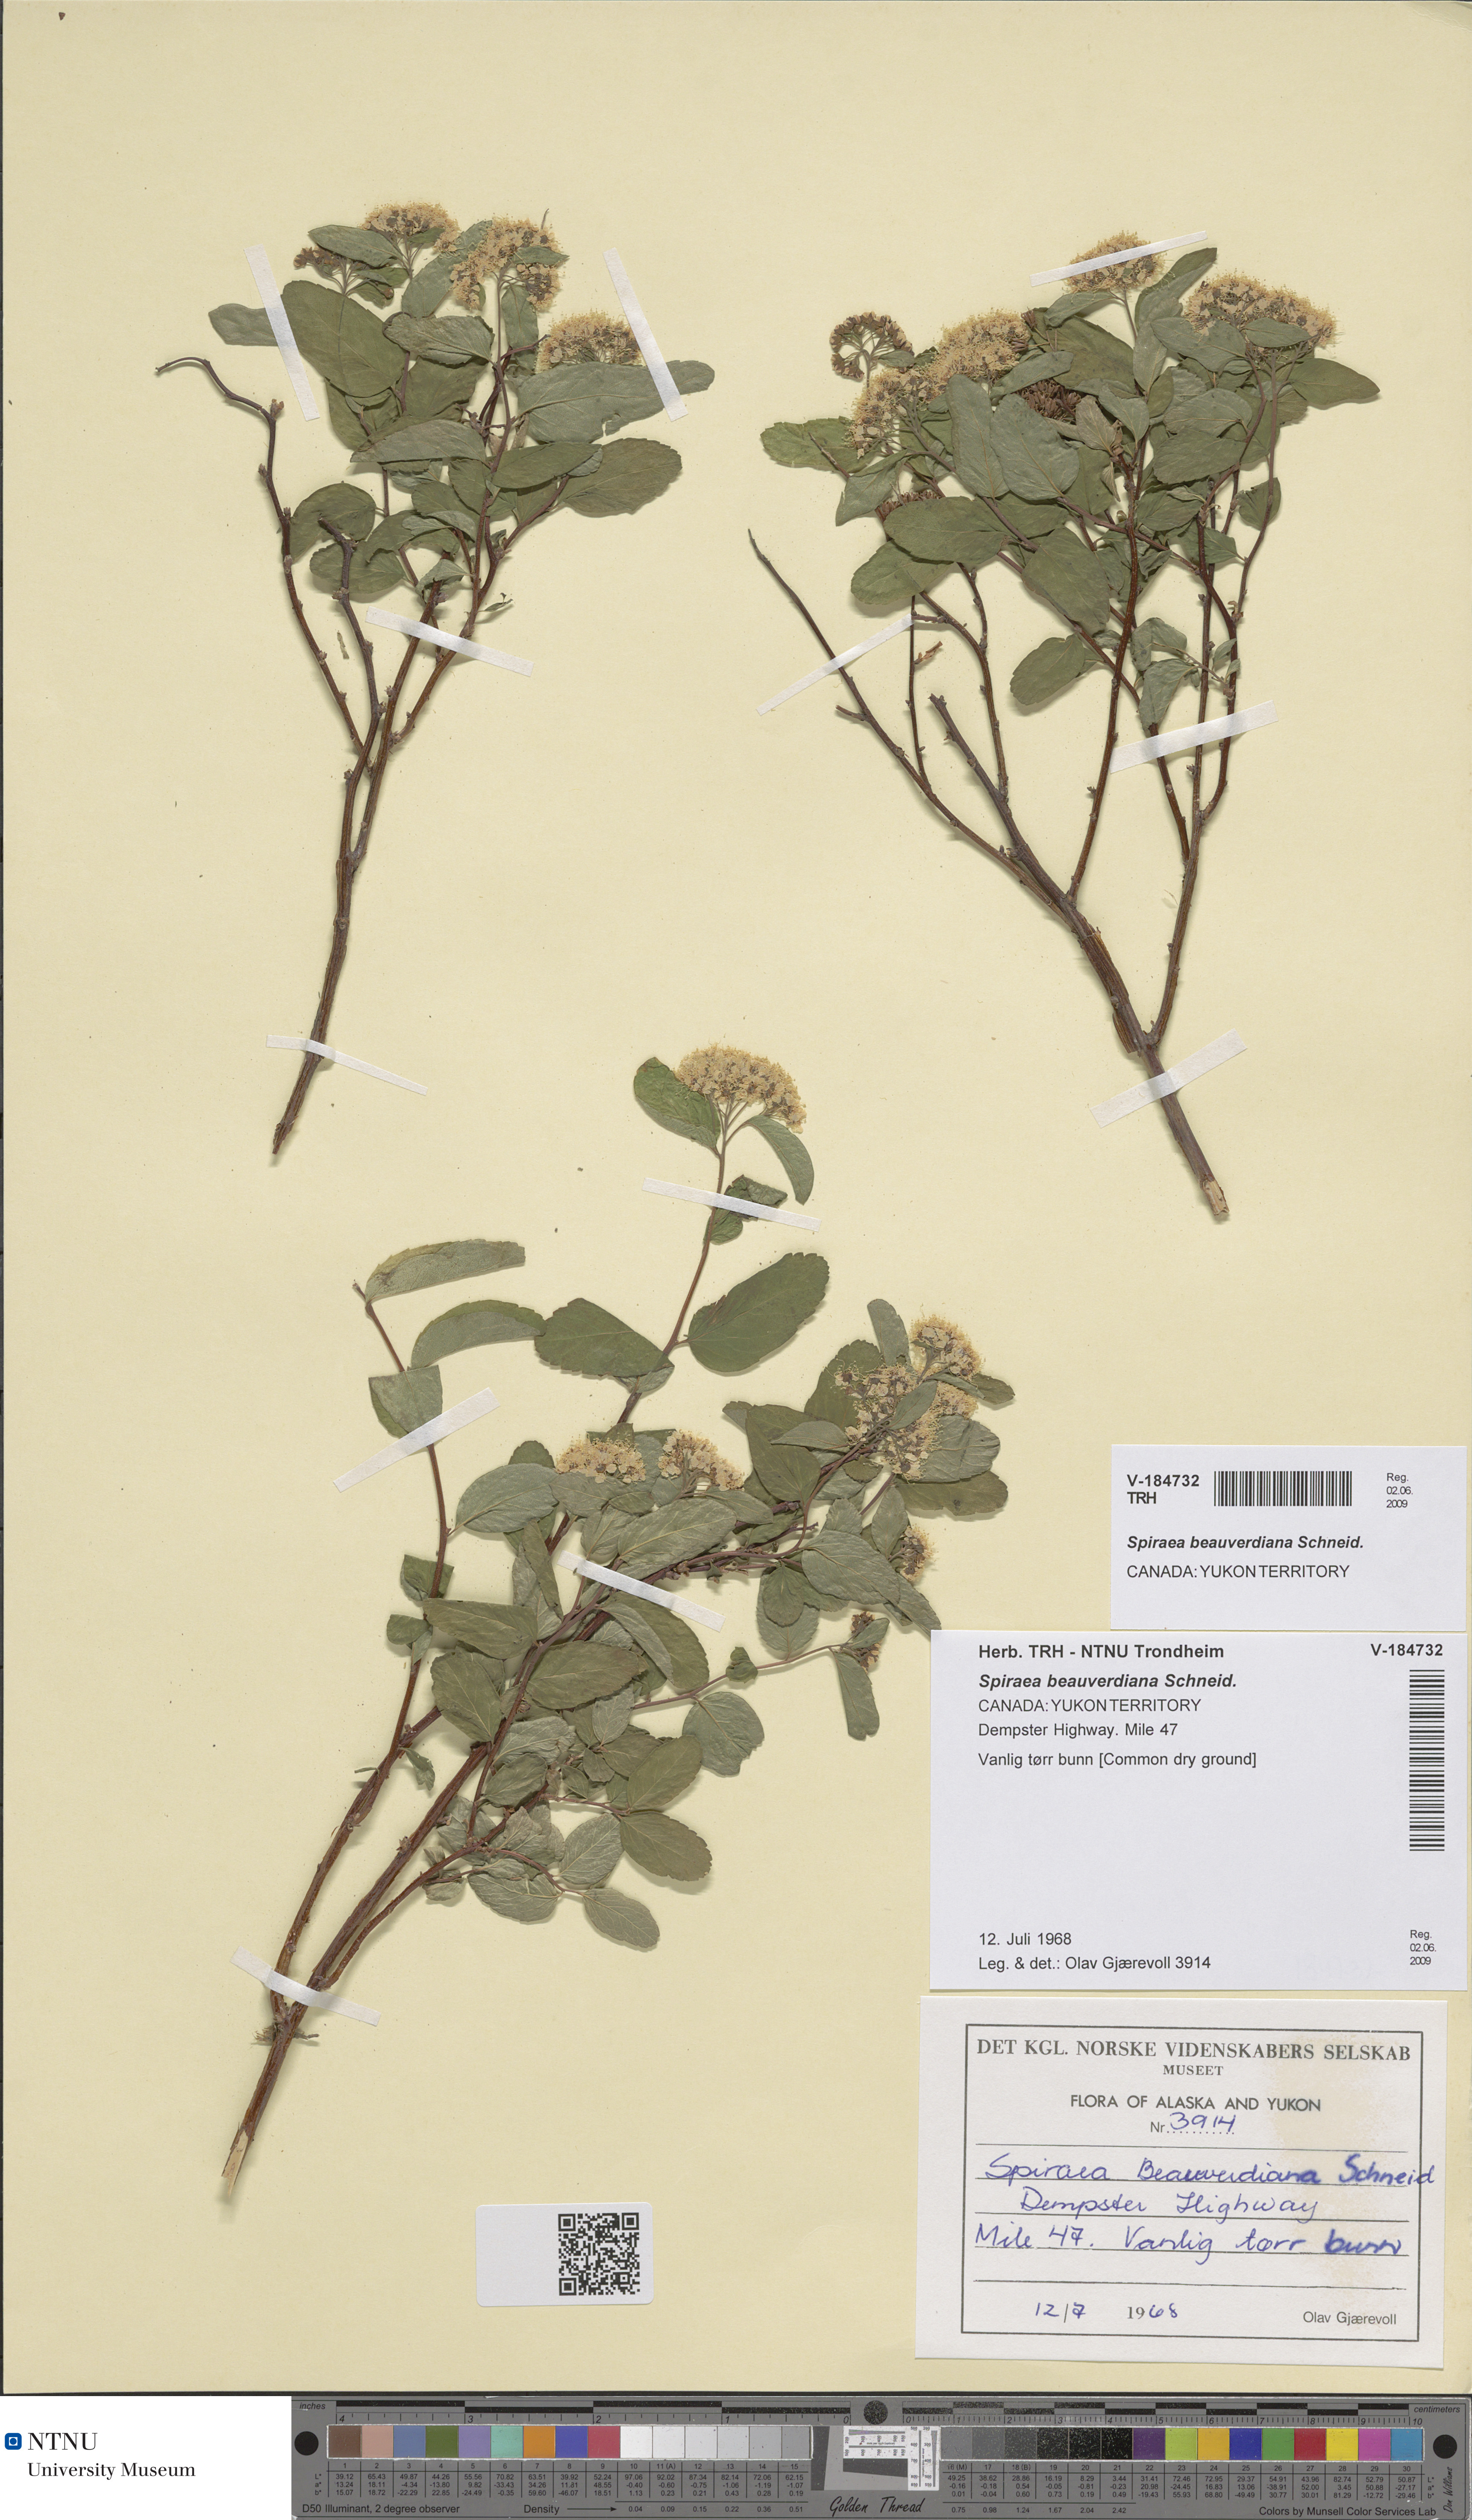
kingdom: Plantae
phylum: Tracheophyta
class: Magnoliopsida
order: Rosales
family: Rosaceae
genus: Spiraea
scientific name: Spiraea betulifolia
